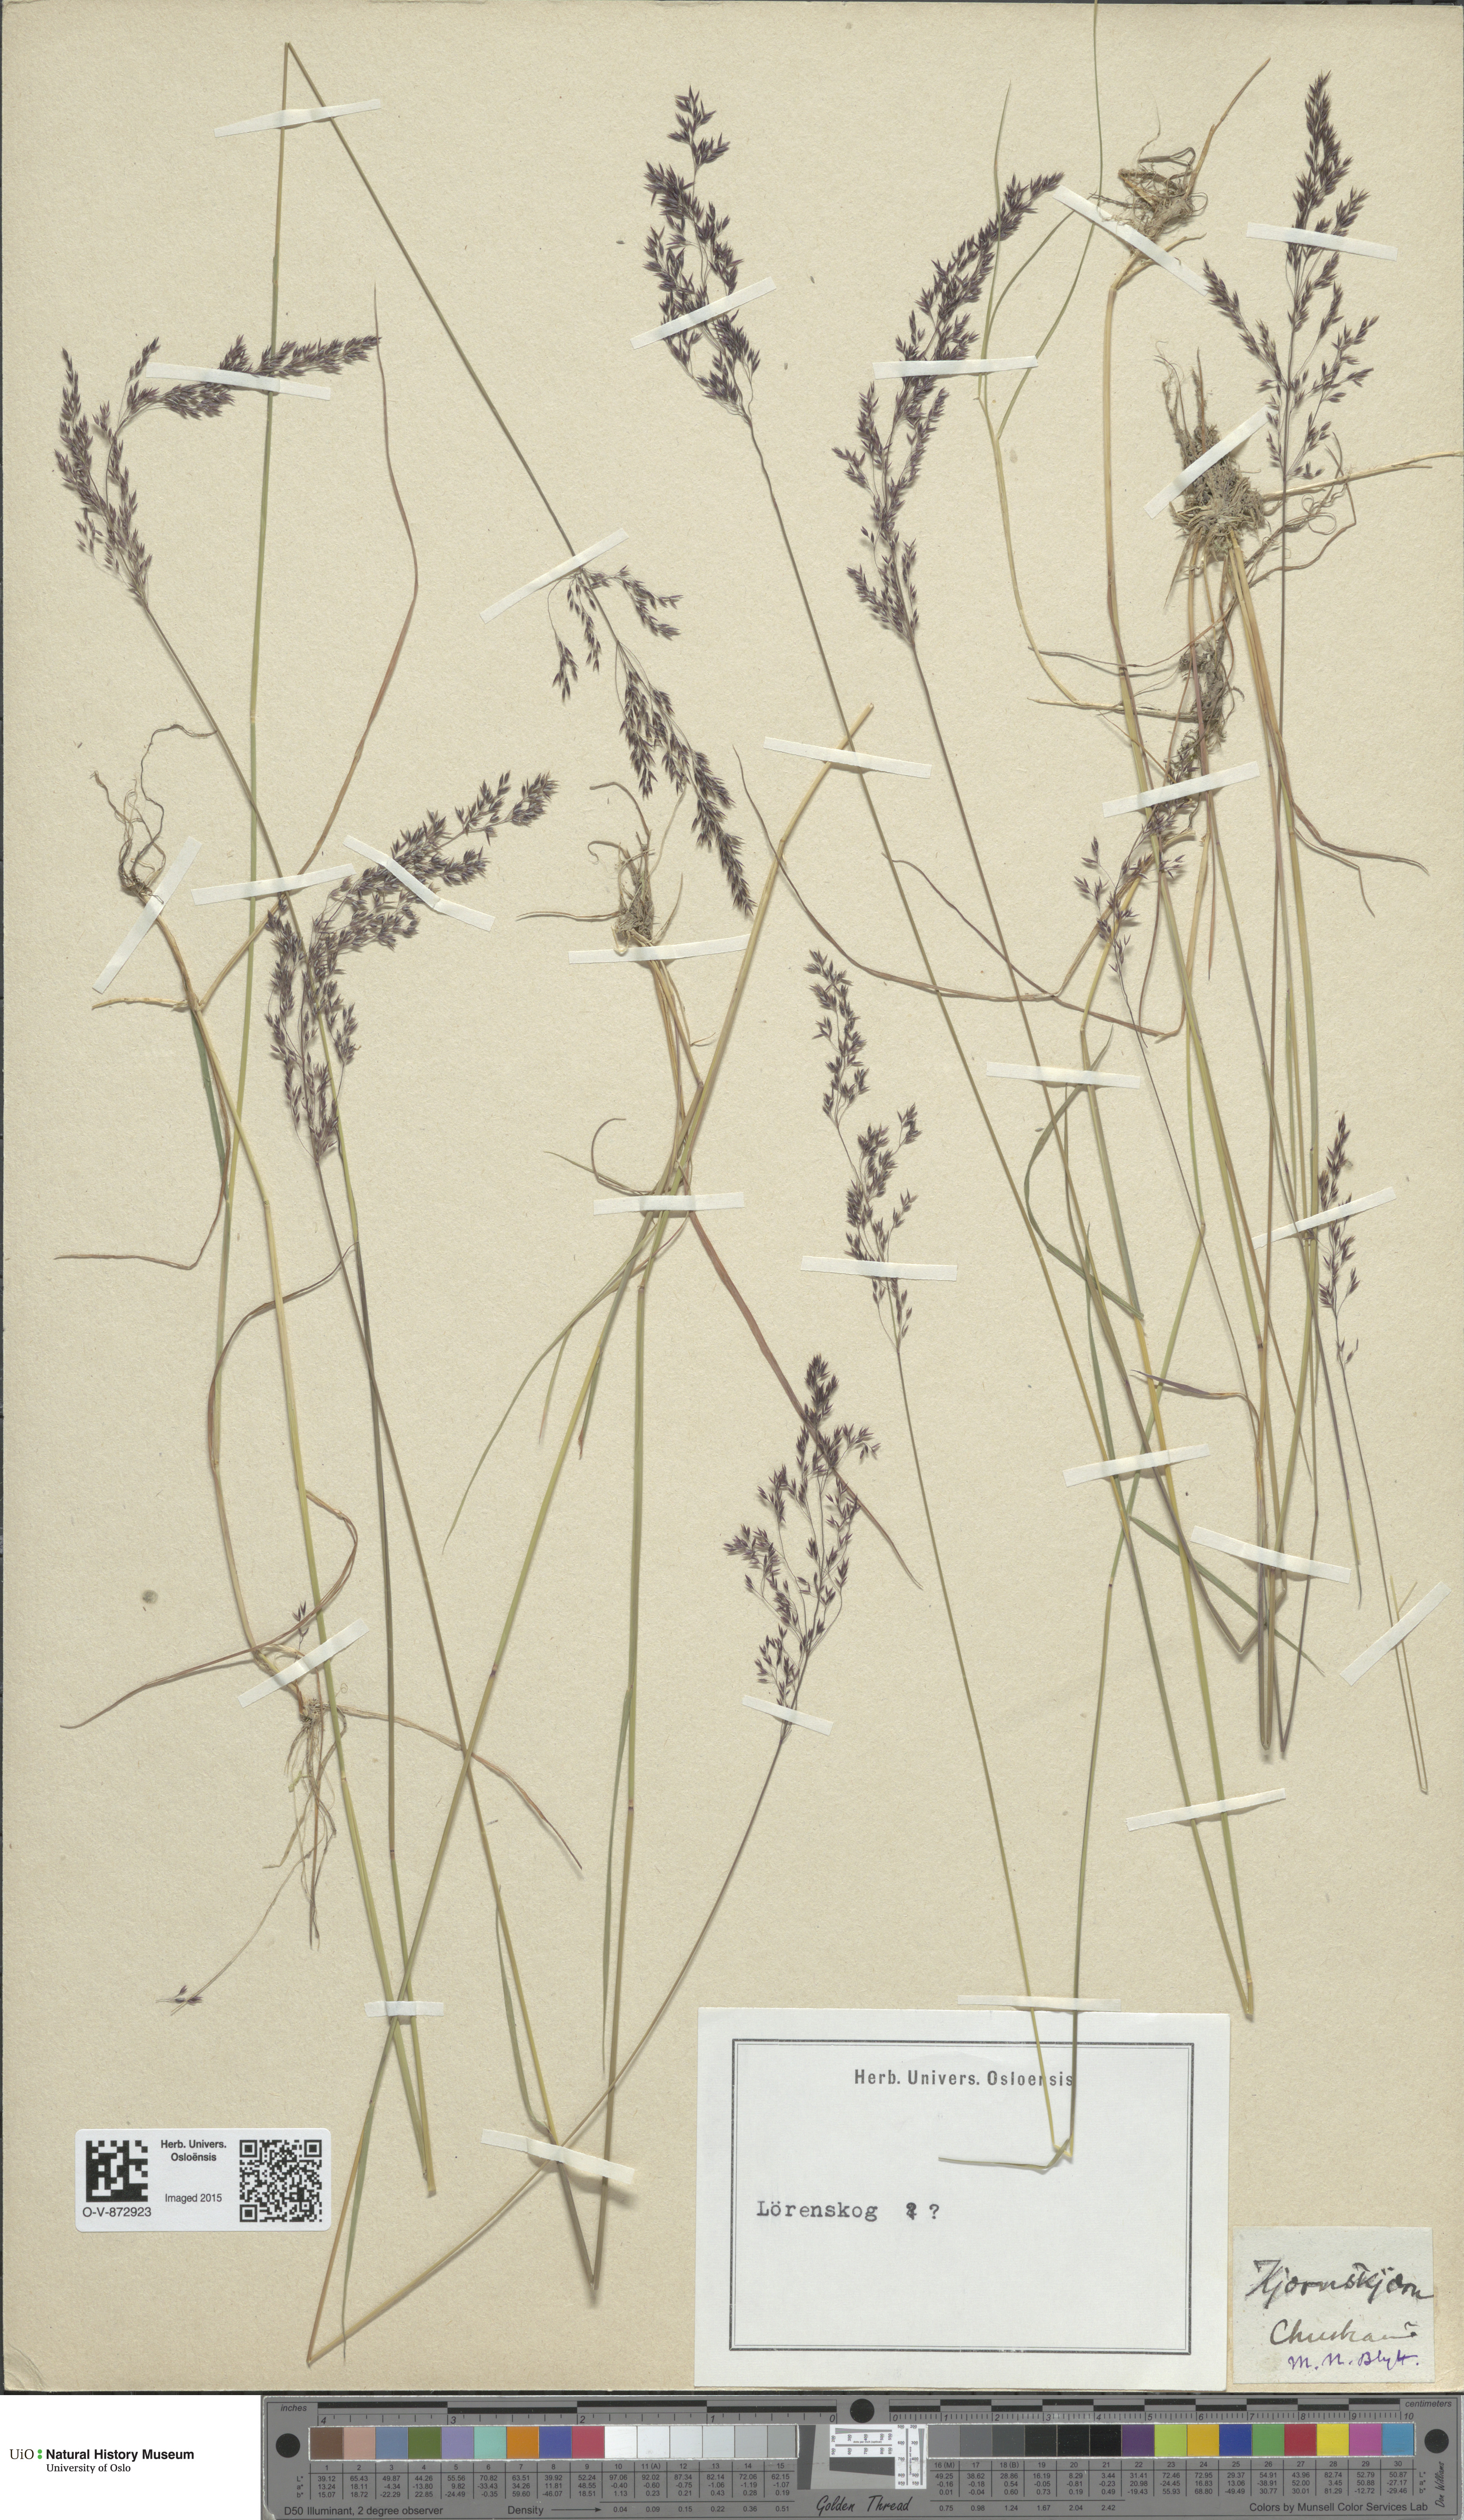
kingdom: Plantae
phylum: Tracheophyta
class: Liliopsida
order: Poales
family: Poaceae
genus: Agrostis
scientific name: Agrostis canina
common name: Velvet bent
